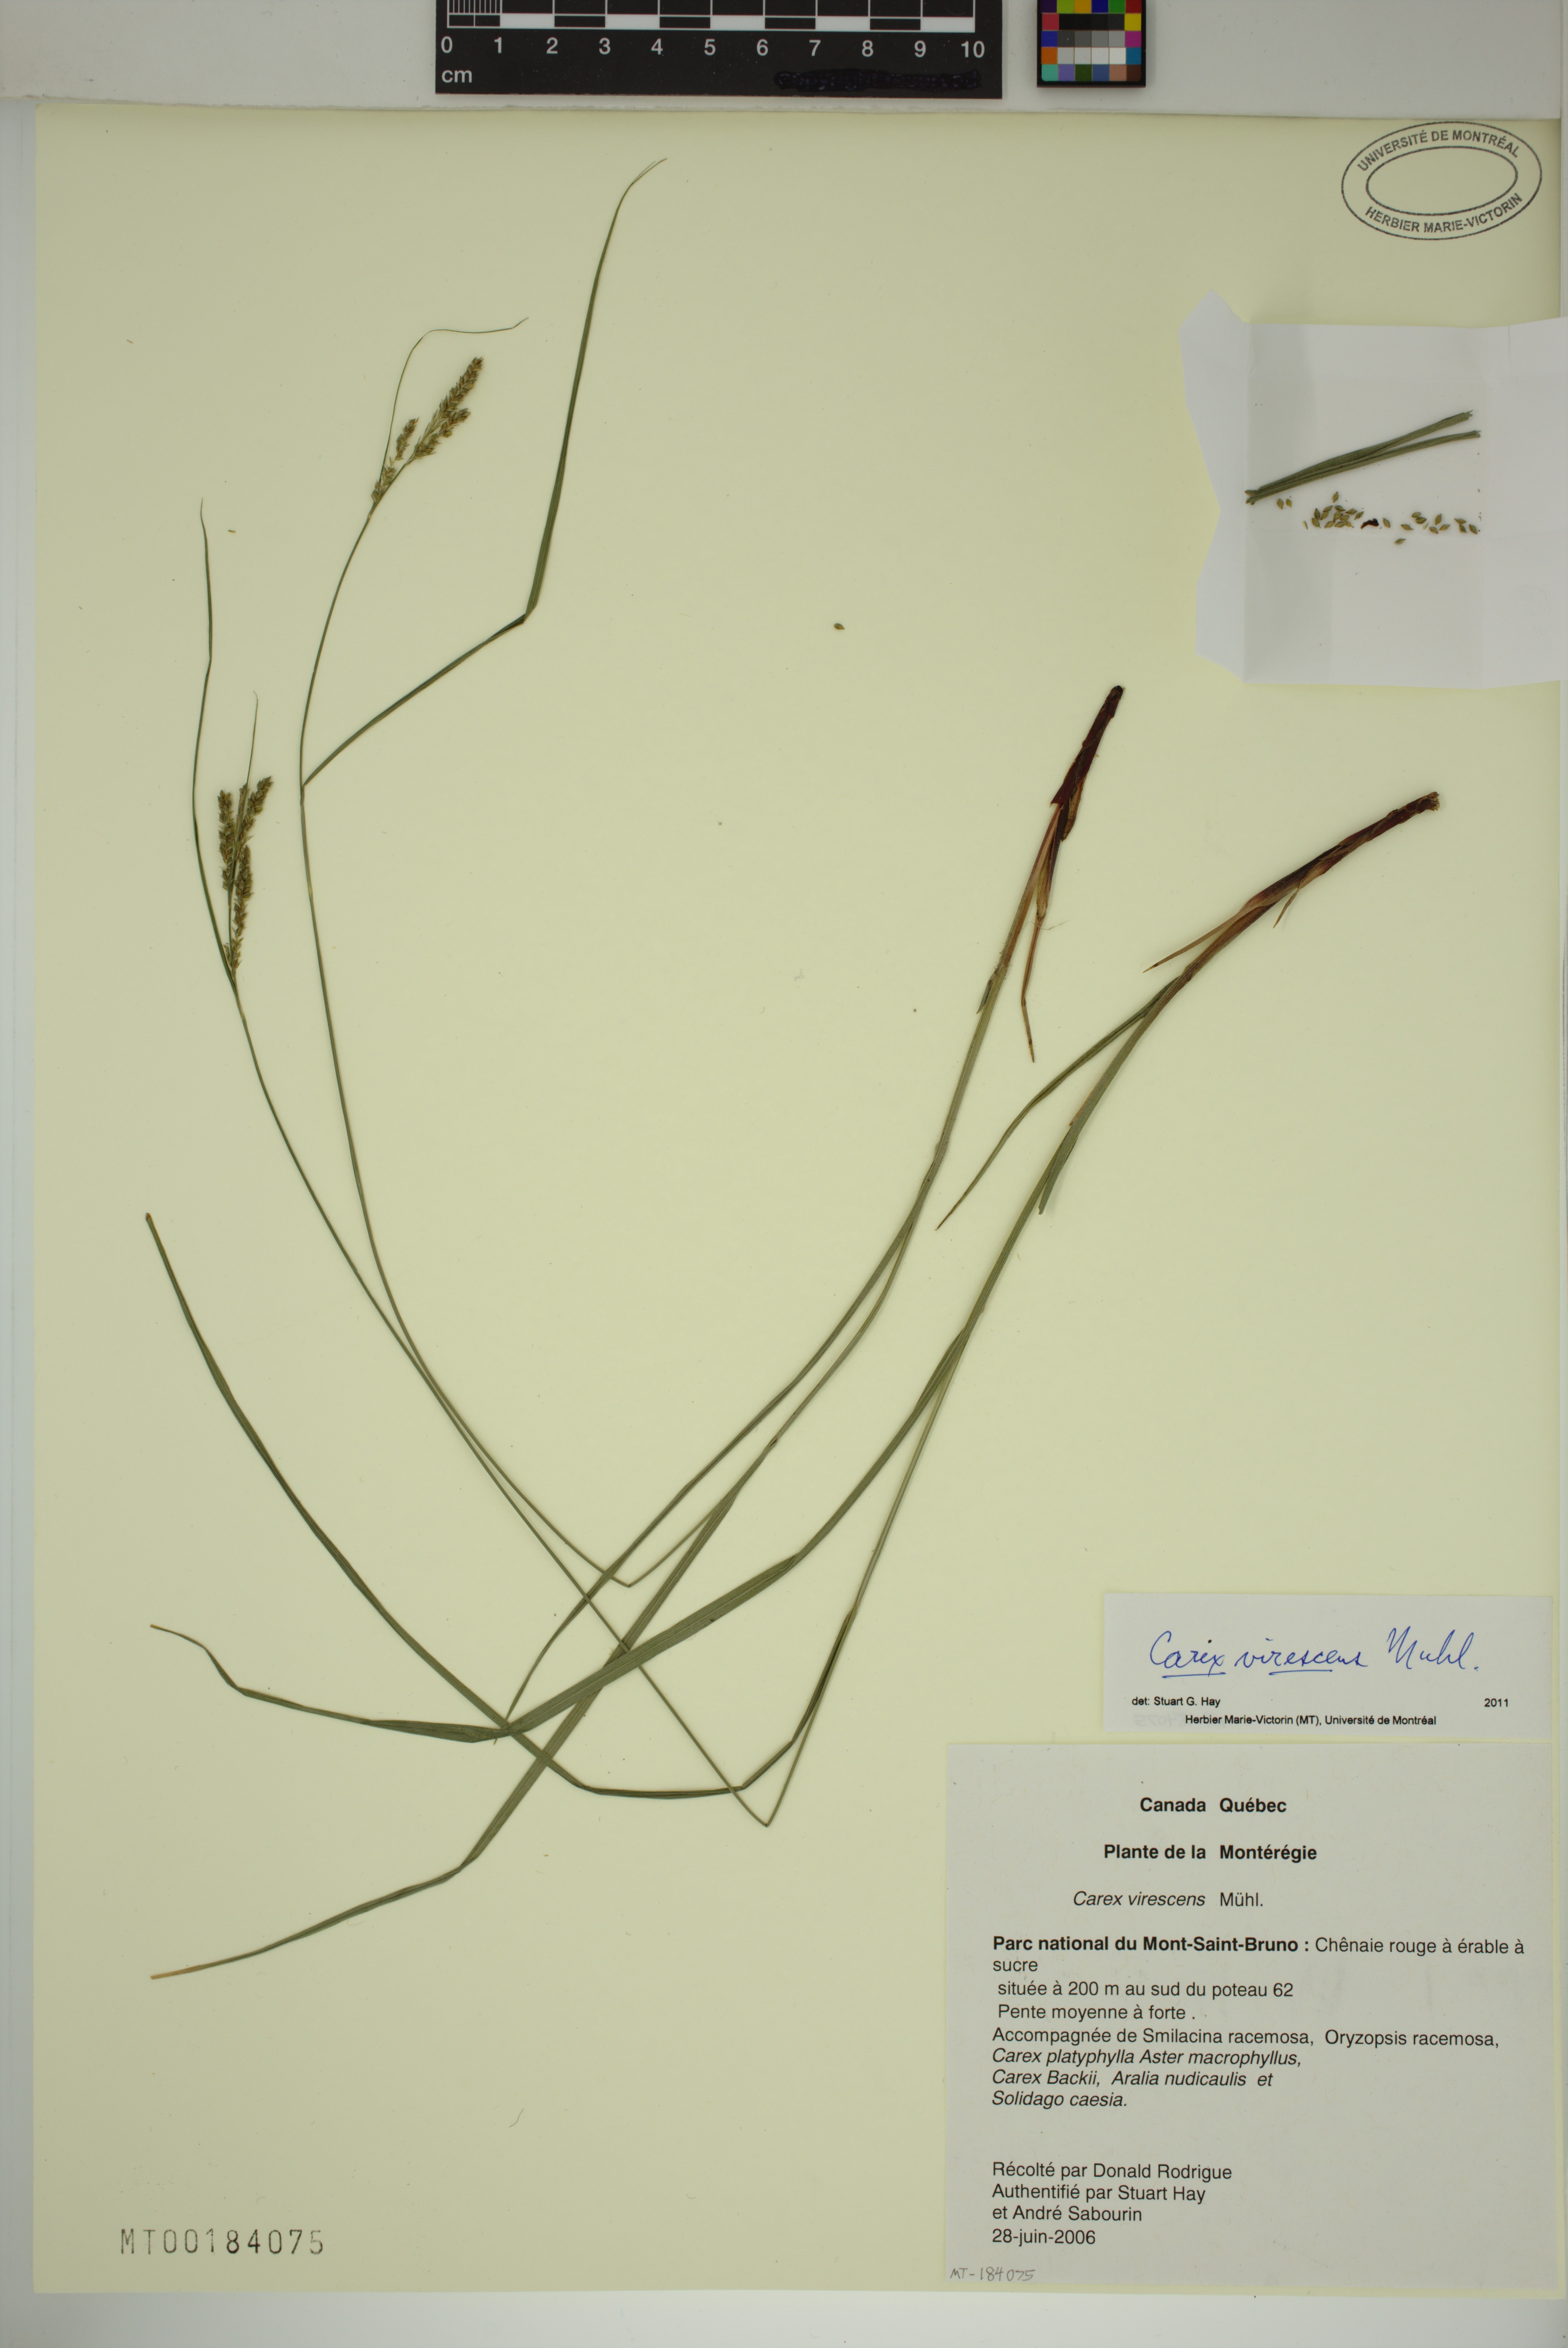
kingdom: Plantae
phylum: Tracheophyta
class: Liliopsida
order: Poales
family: Cyperaceae
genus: Carex
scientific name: Carex virescens
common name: Ribbed sedge
